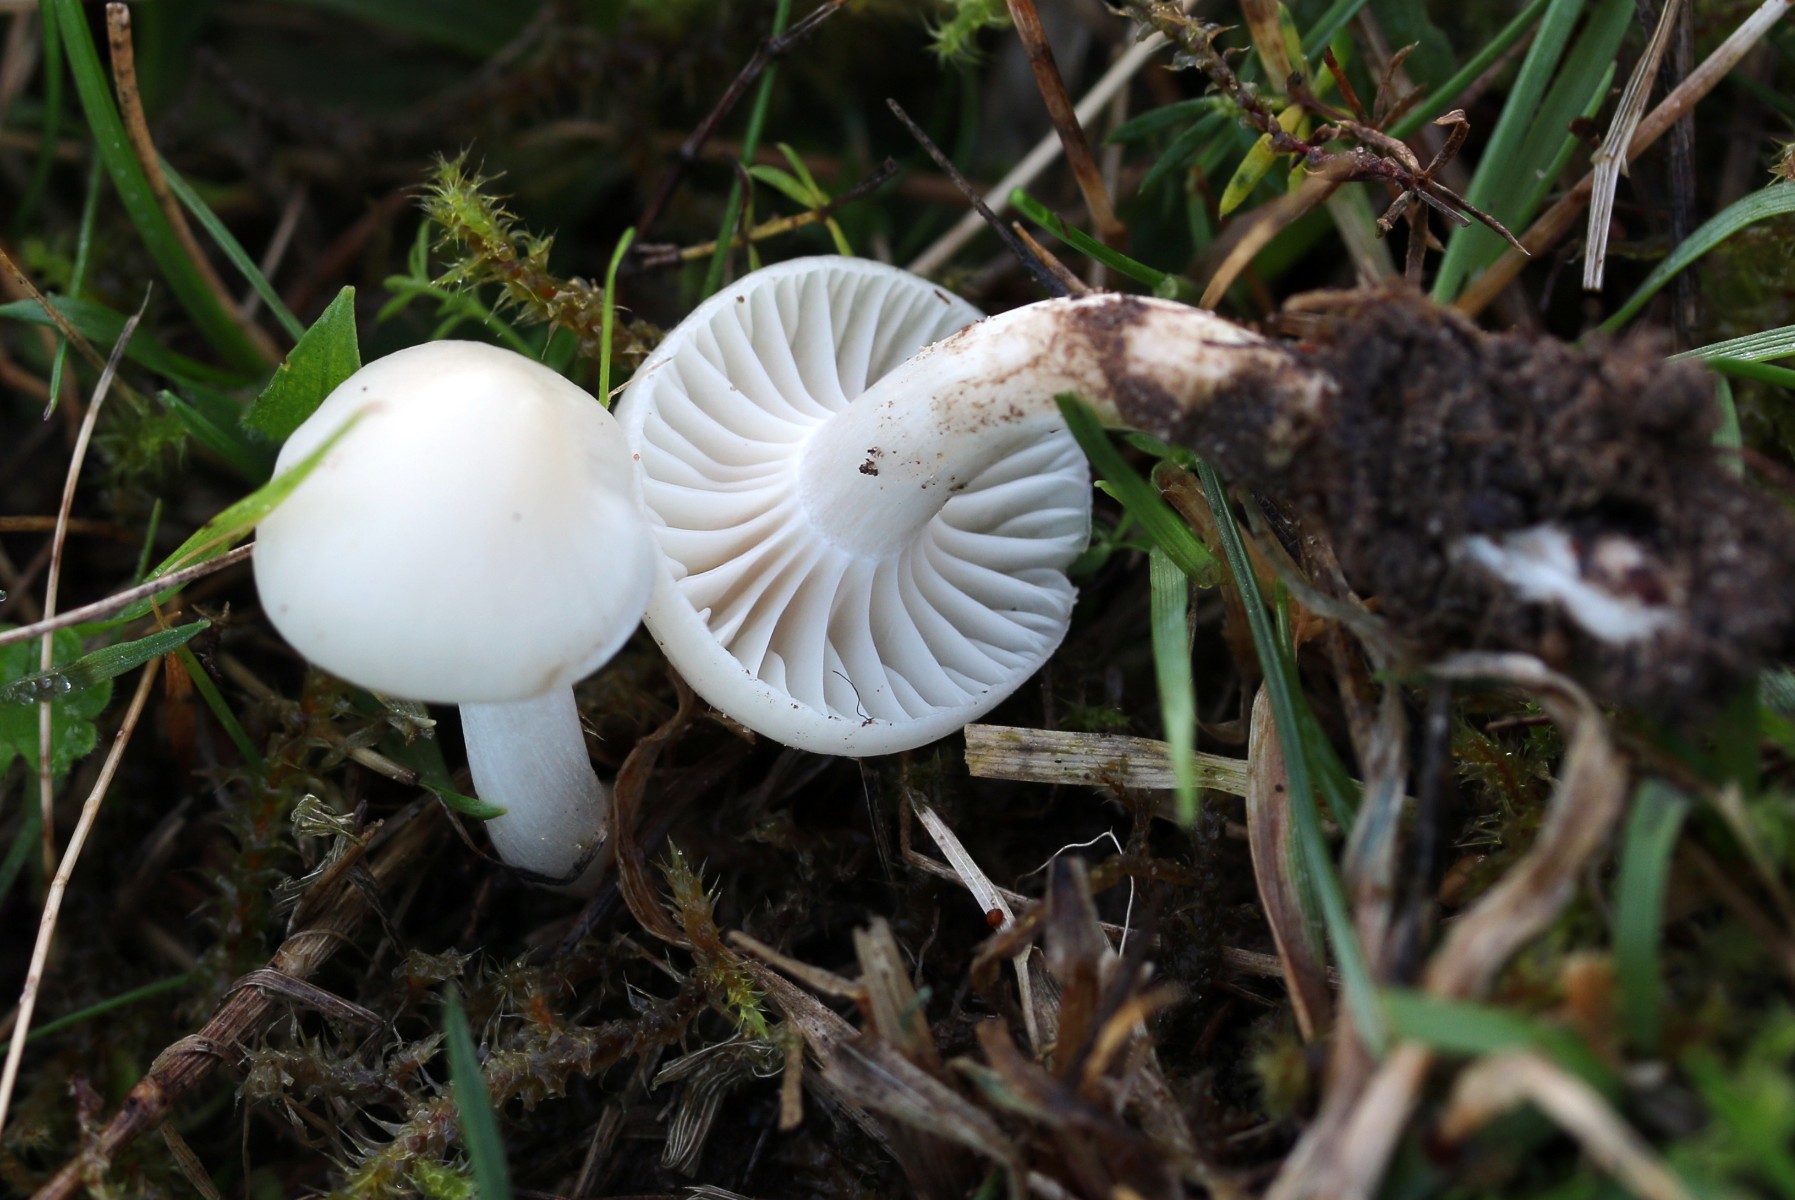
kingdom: Fungi
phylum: Basidiomycota
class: Agaricomycetes
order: Agaricales
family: Hygrophoraceae
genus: Cuphophyllus
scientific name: Cuphophyllus virgineus
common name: snehvid vokshat
